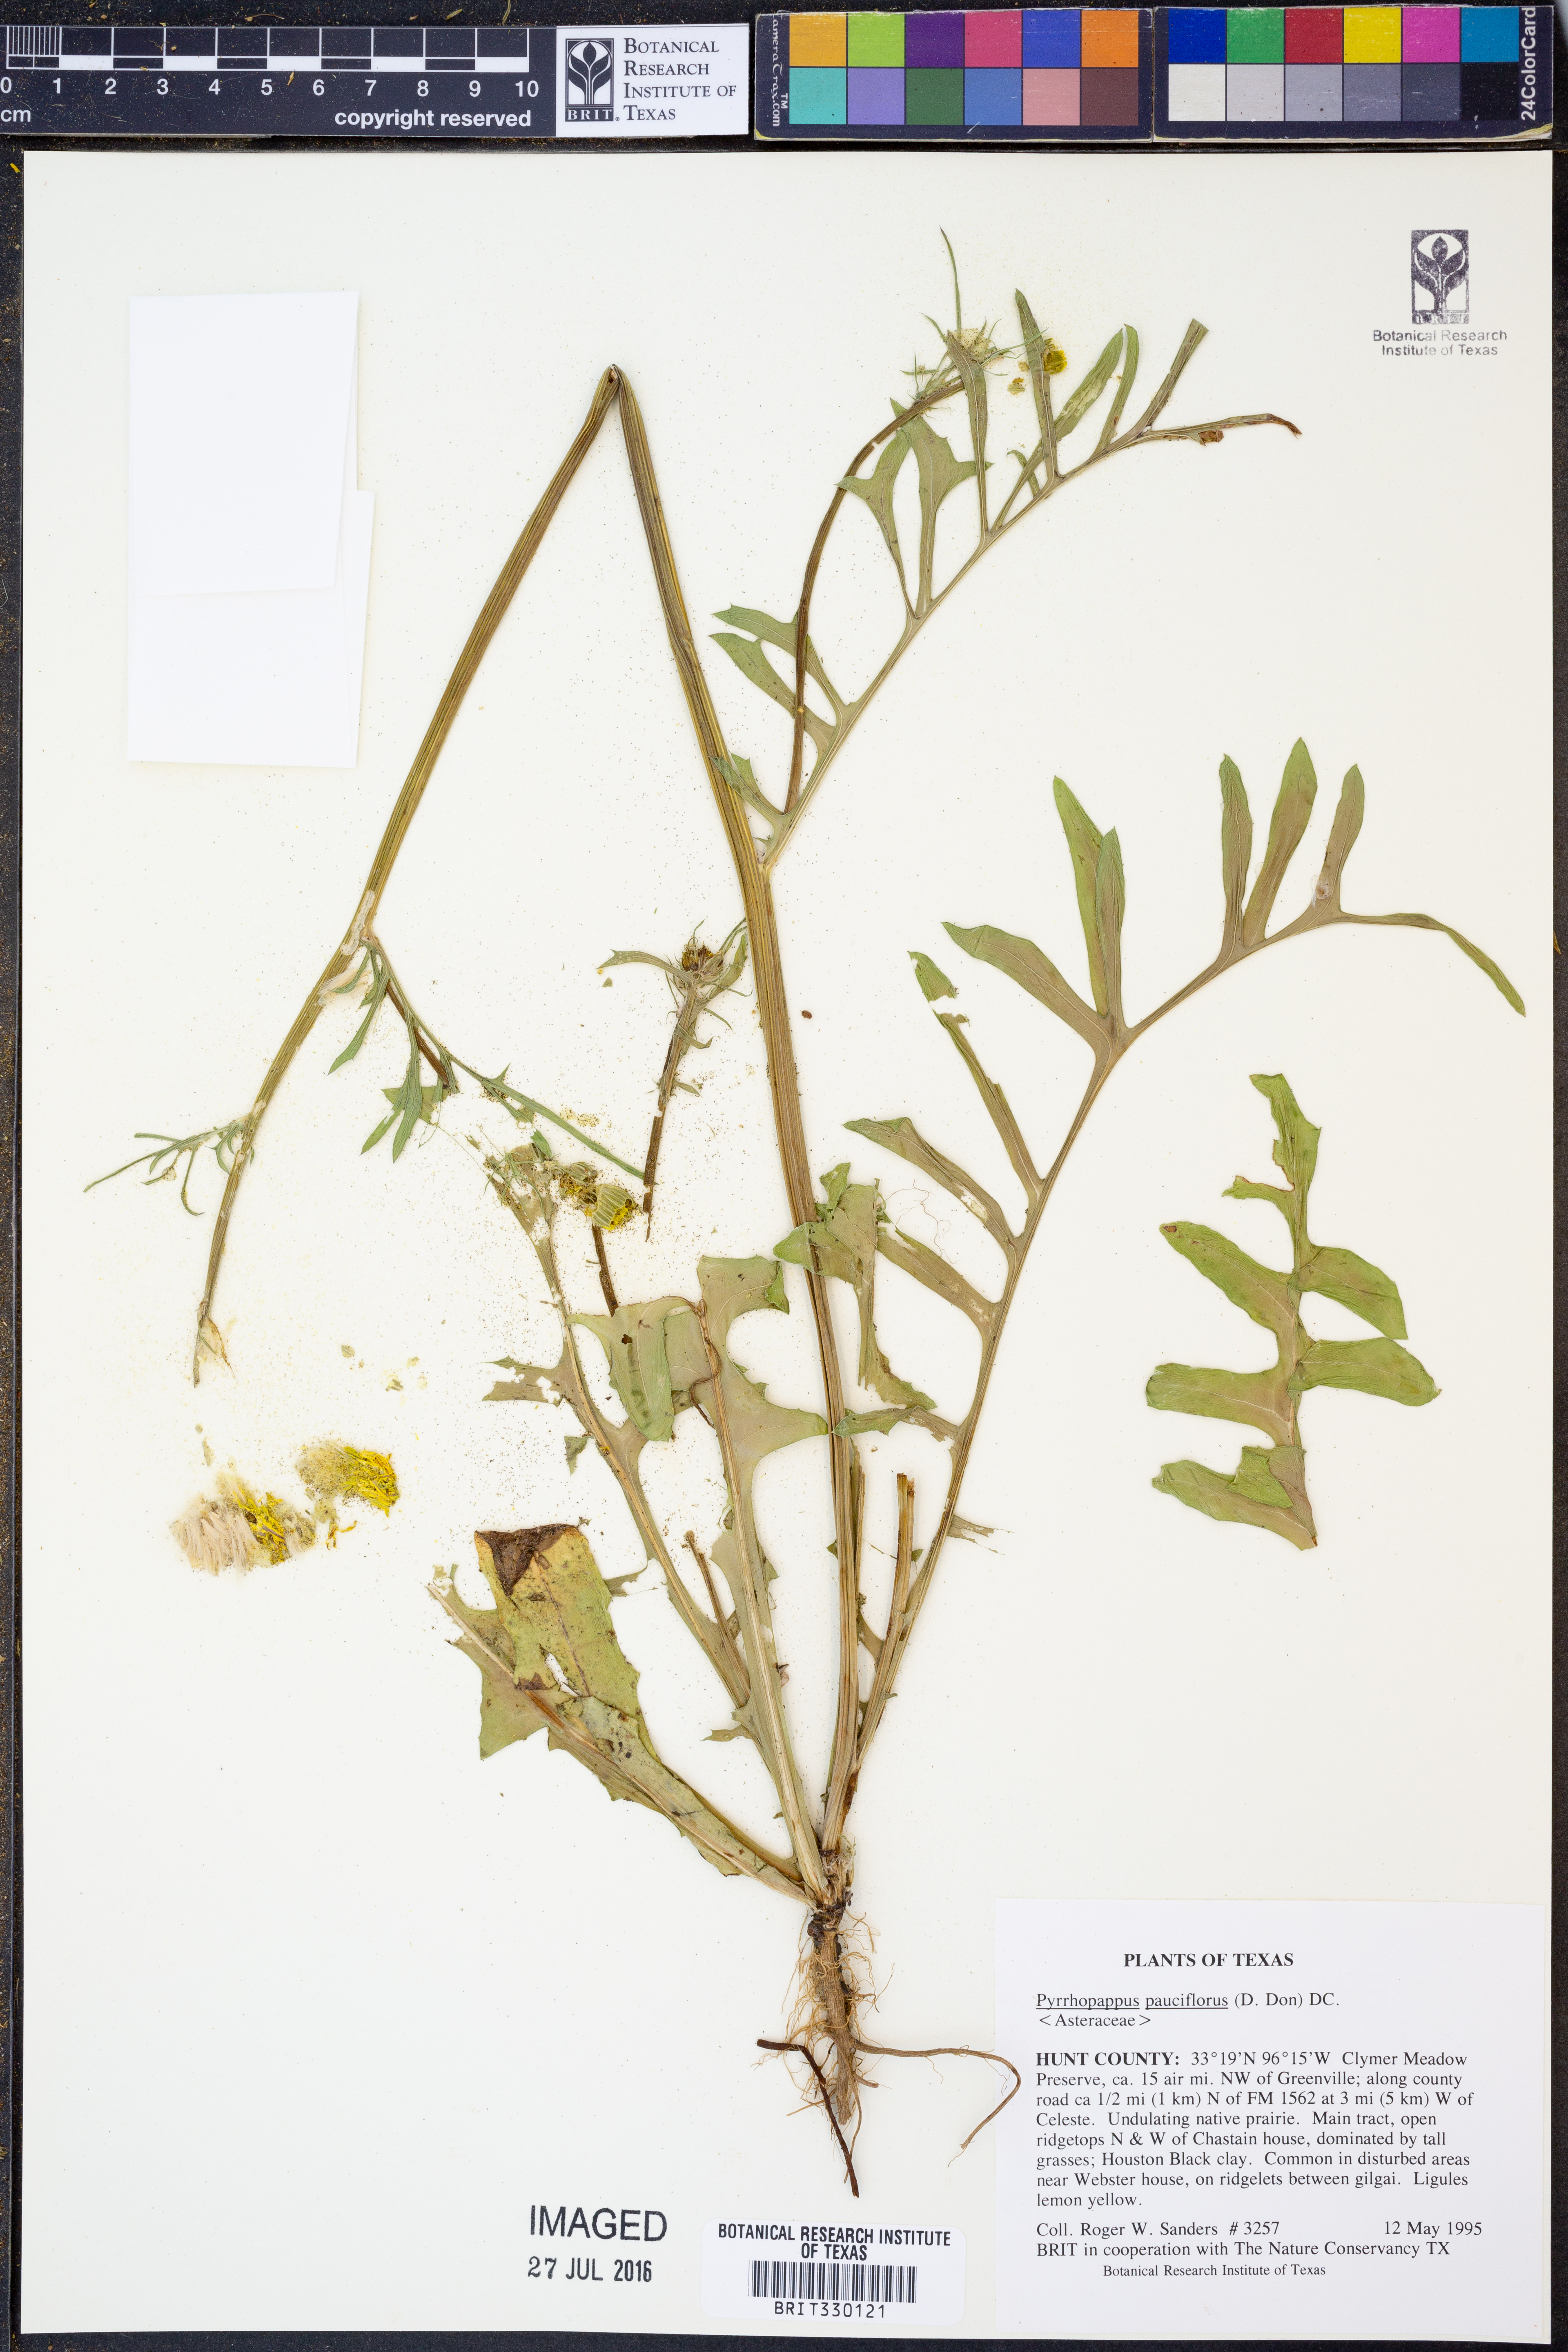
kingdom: Plantae
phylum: Tracheophyta
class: Magnoliopsida
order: Asterales
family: Asteraceae
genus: Pyrrhopappus
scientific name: Pyrrhopappus pauciflorus
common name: Texas false dandelion
